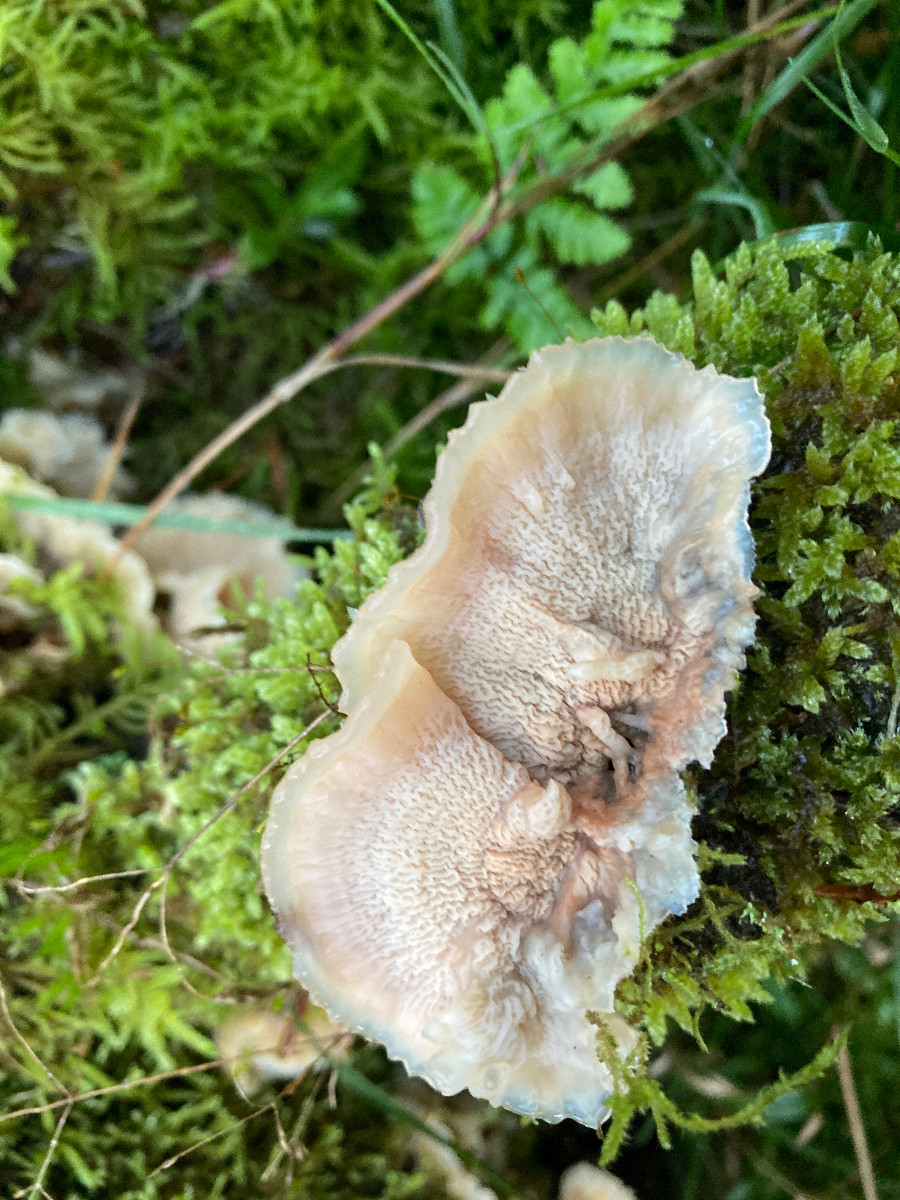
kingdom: Fungi
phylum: Basidiomycota
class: Agaricomycetes
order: Polyporales
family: Meruliaceae
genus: Phlebia
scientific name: Phlebia tremellosa
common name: bævrende åresvamp
